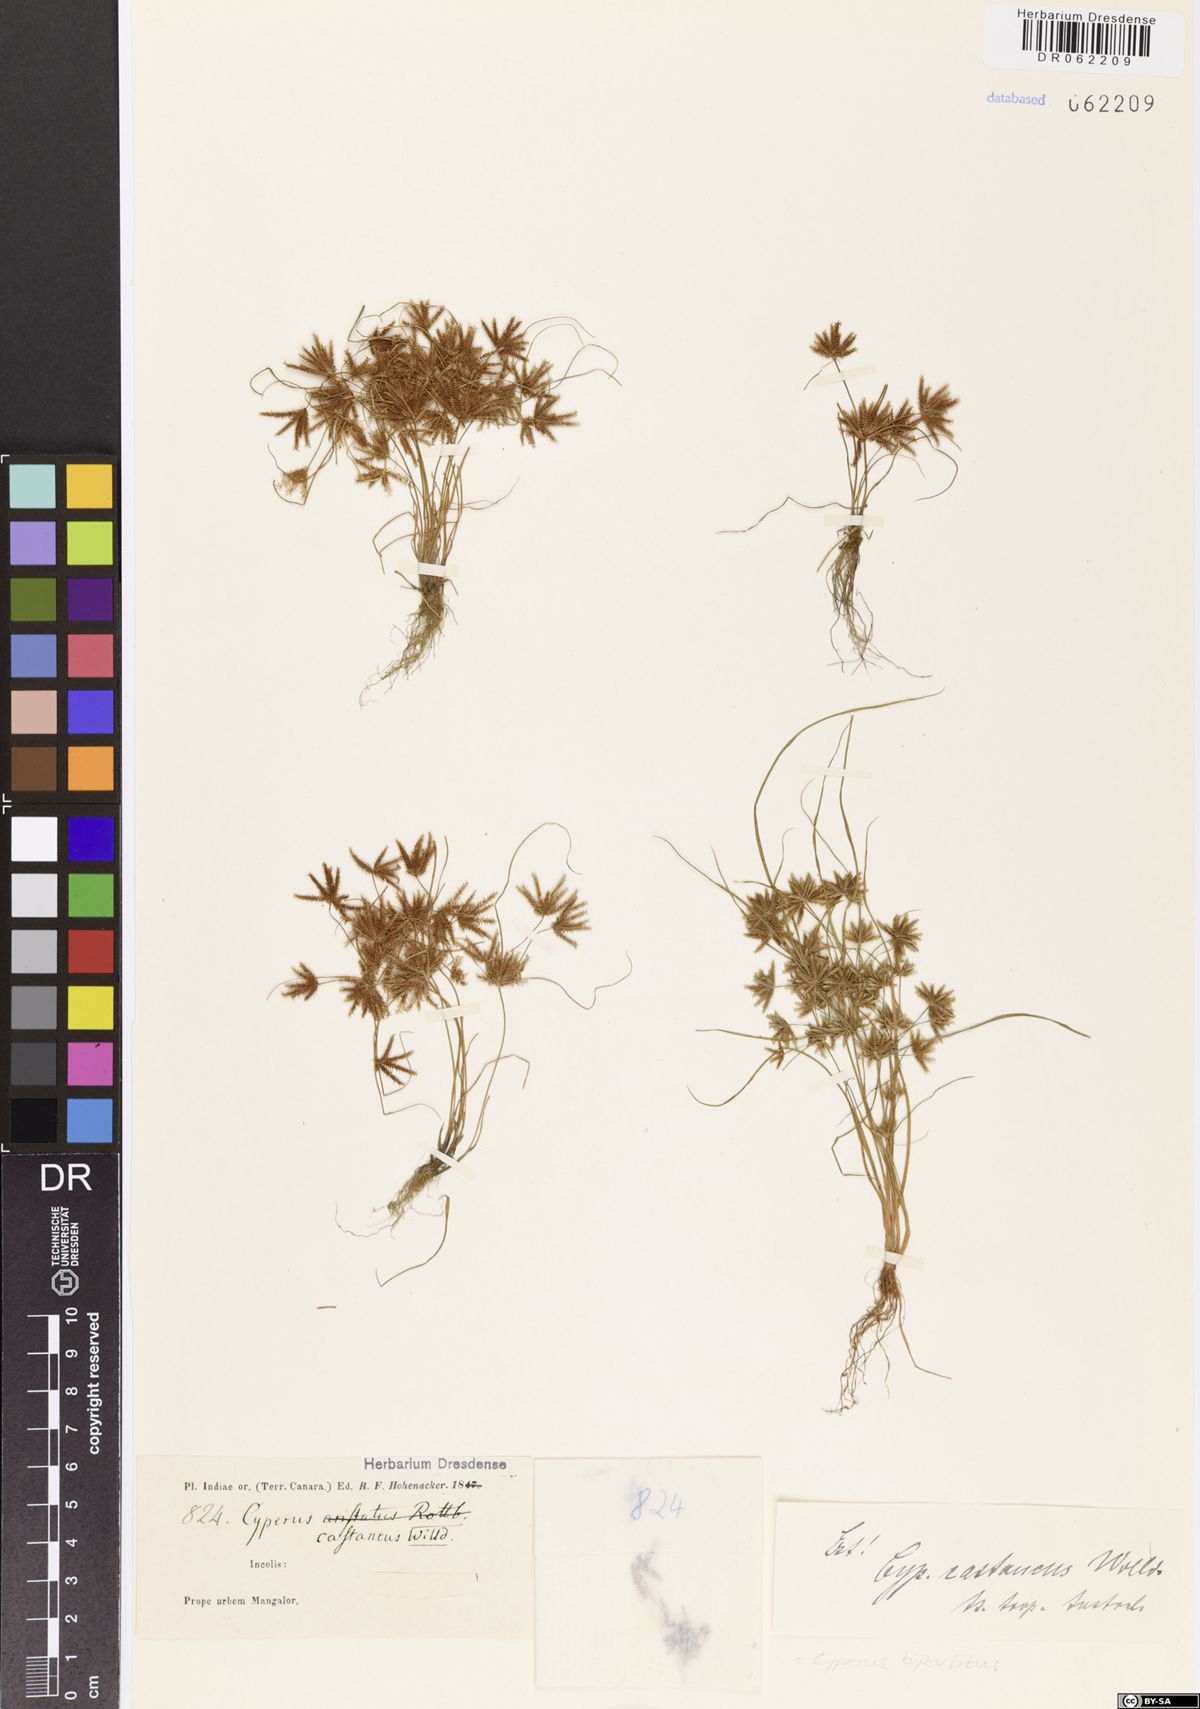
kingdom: Plantae
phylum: Tracheophyta
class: Liliopsida
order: Poales
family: Cyperaceae
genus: Cyperus
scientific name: Cyperus bipartitus
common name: Brook flatsedge
